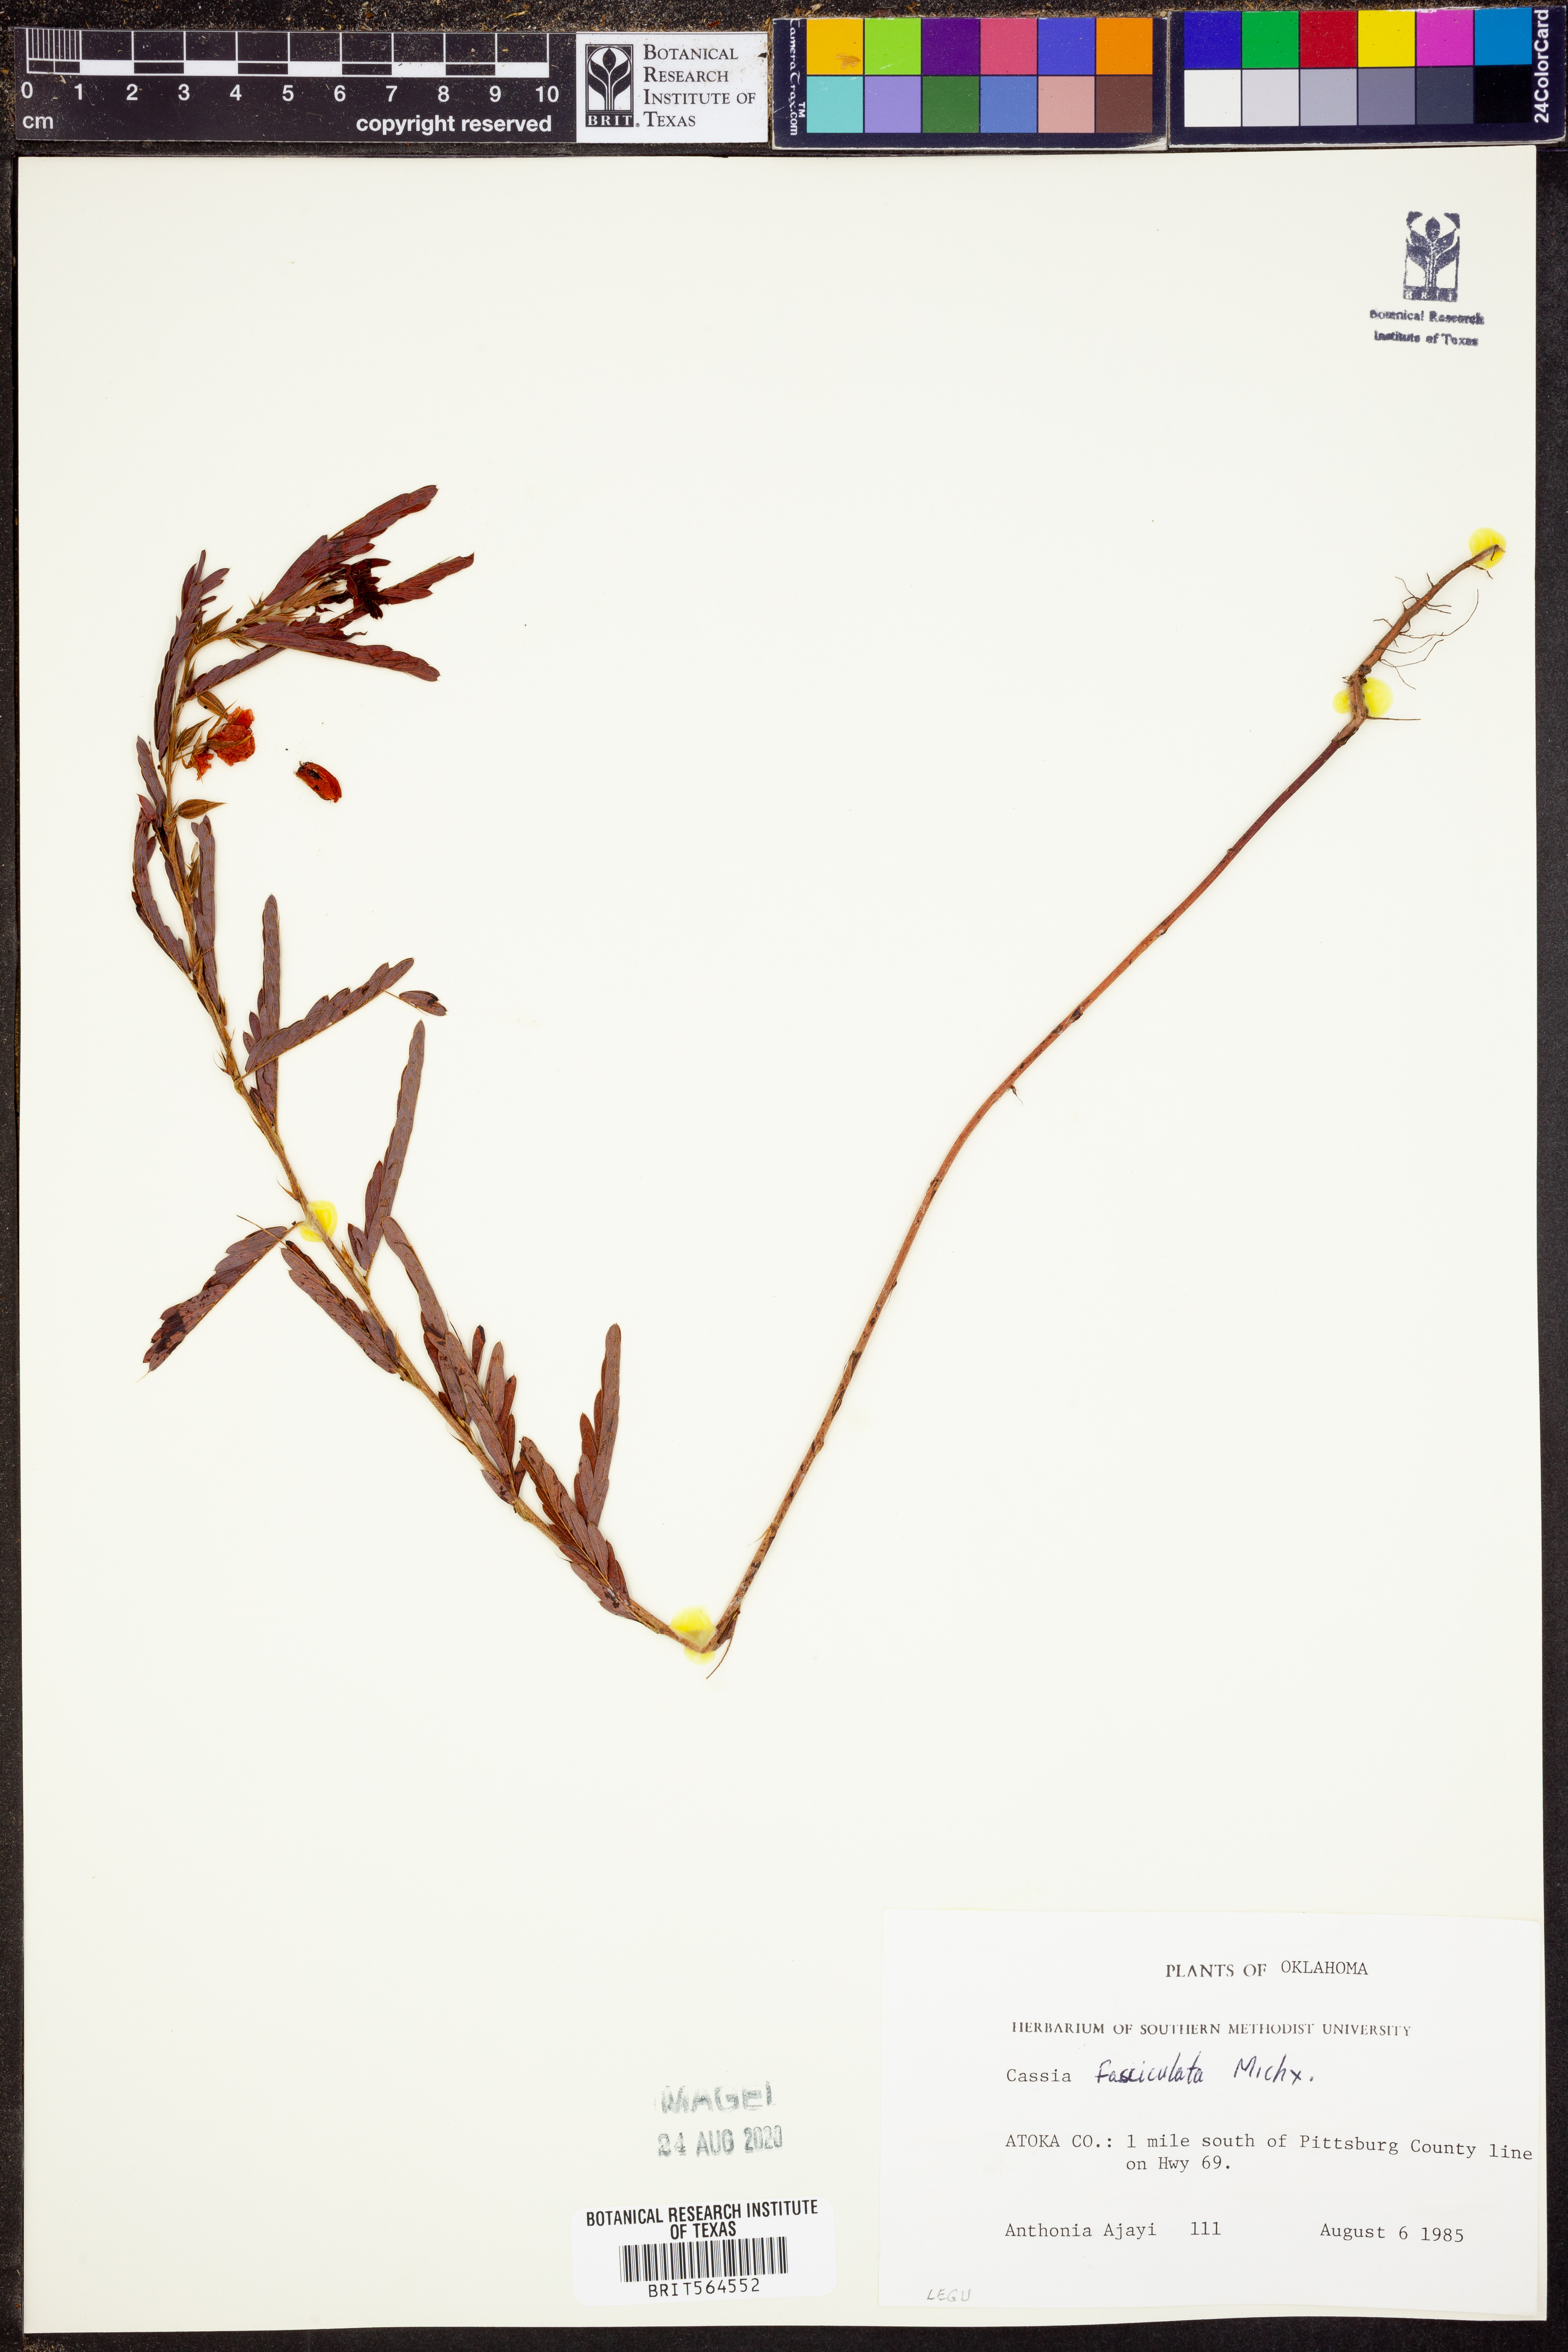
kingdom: Plantae
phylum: Tracheophyta
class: Magnoliopsida
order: Fabales
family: Fabaceae
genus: Chamaecrista
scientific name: Chamaecrista fasciculata
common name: Golden cassia
